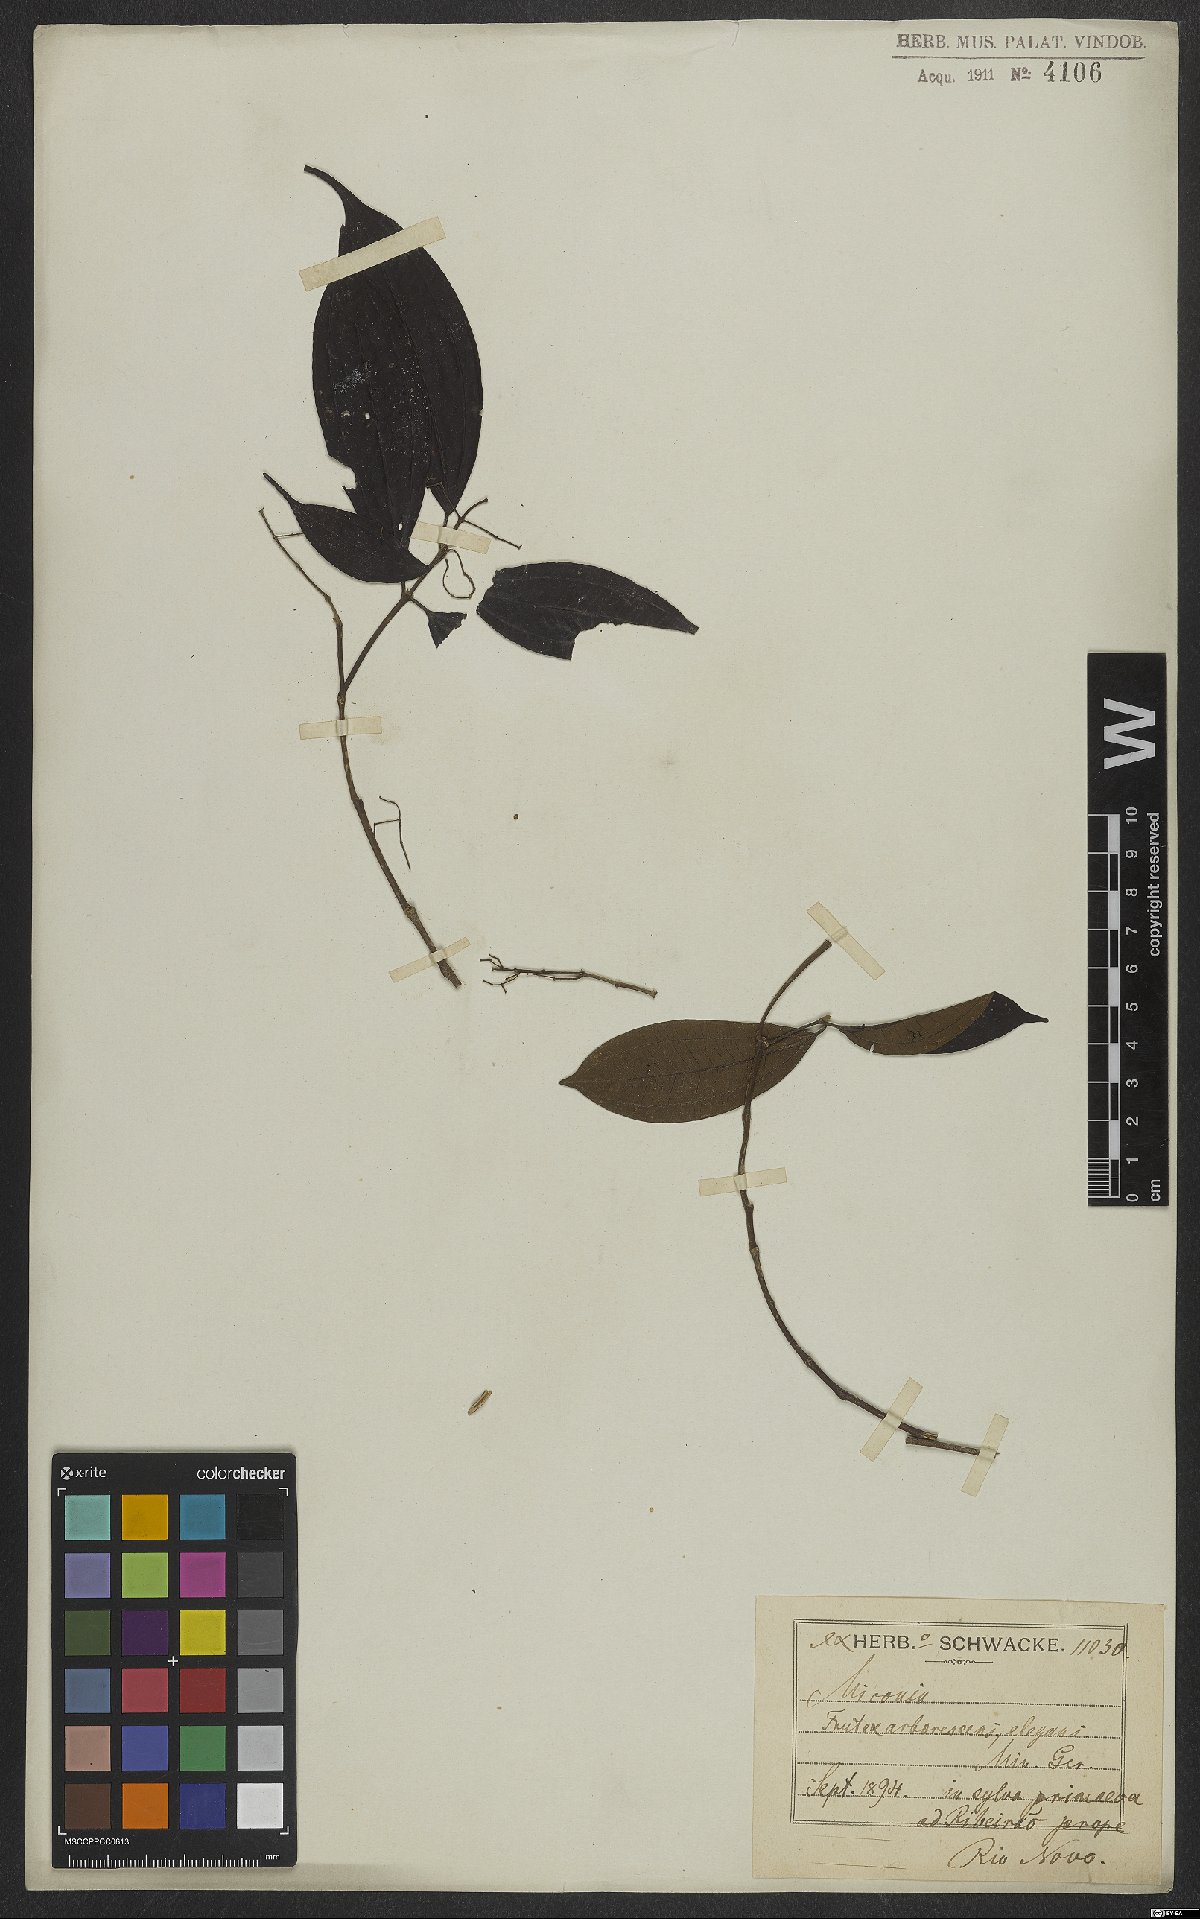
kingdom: Plantae
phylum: Tracheophyta
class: Magnoliopsida
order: Myrtales
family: Melastomataceae
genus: Miconia
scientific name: Miconia
